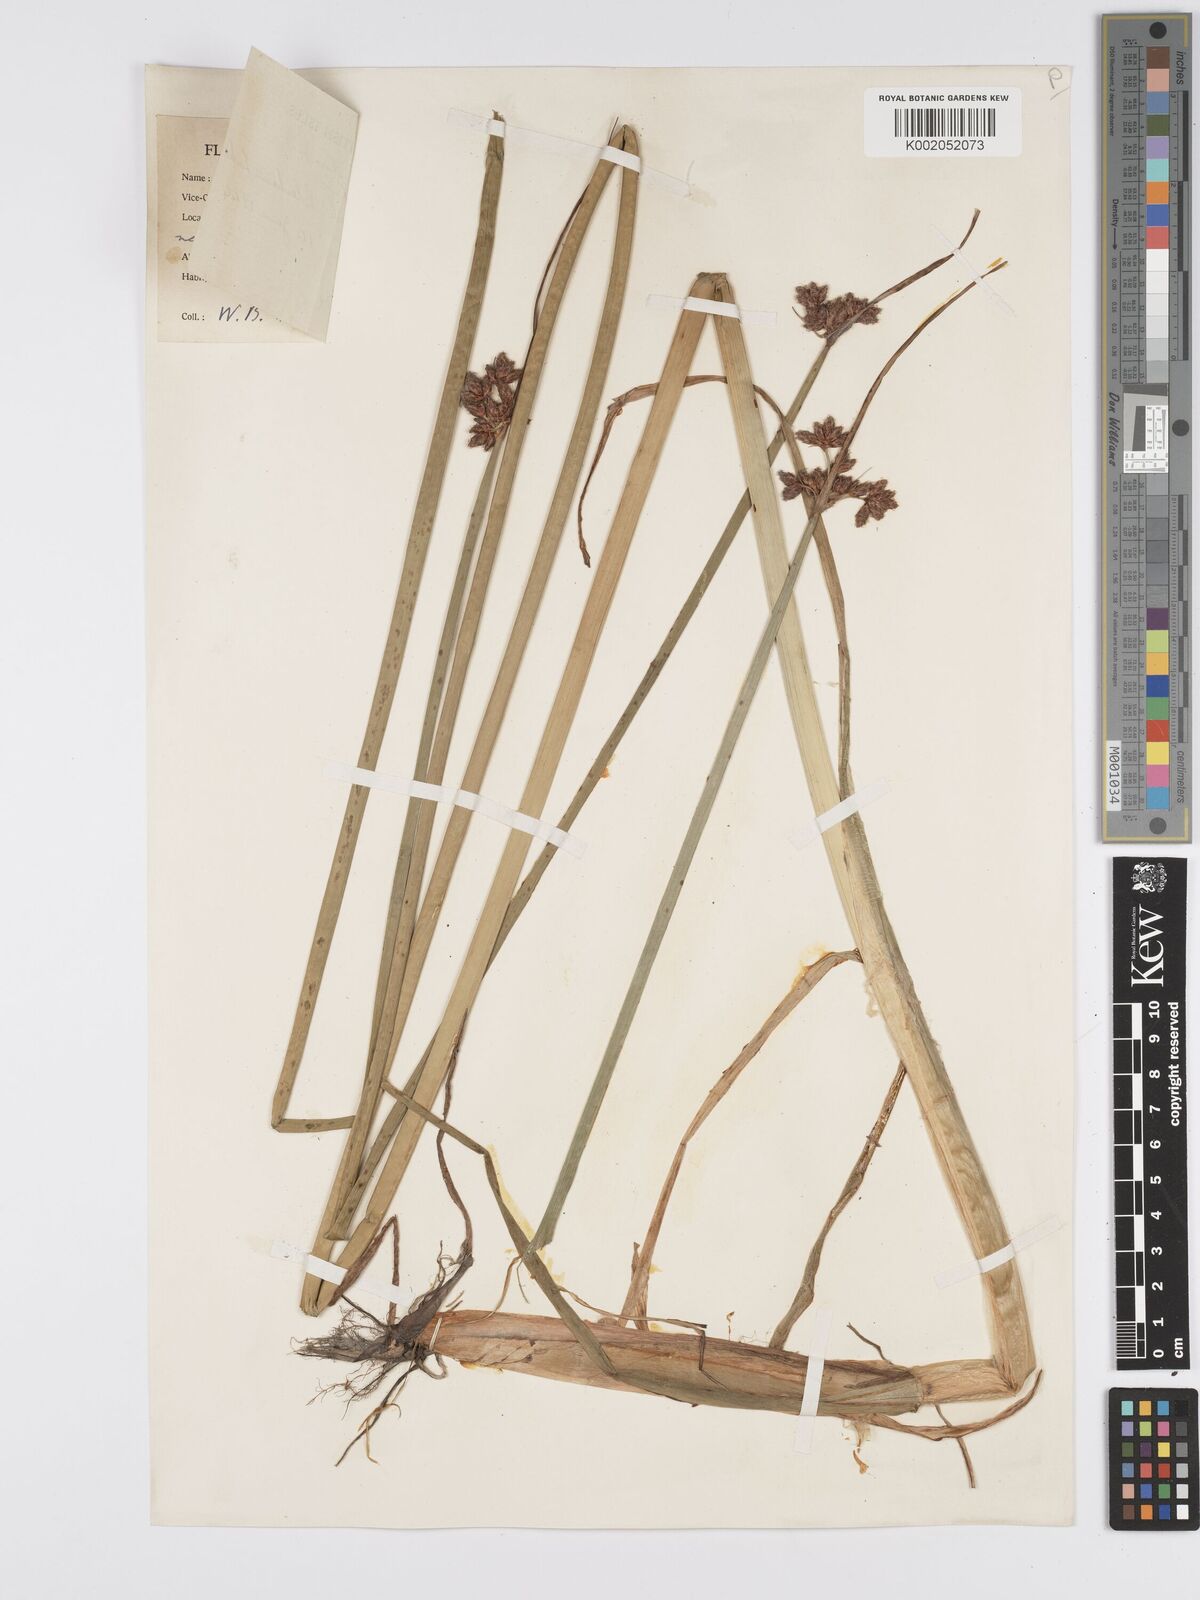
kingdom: Plantae
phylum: Tracheophyta
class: Liliopsida
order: Poales
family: Cyperaceae
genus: Schoenoplectus
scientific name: Schoenoplectus lacustris
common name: Common club-rush
